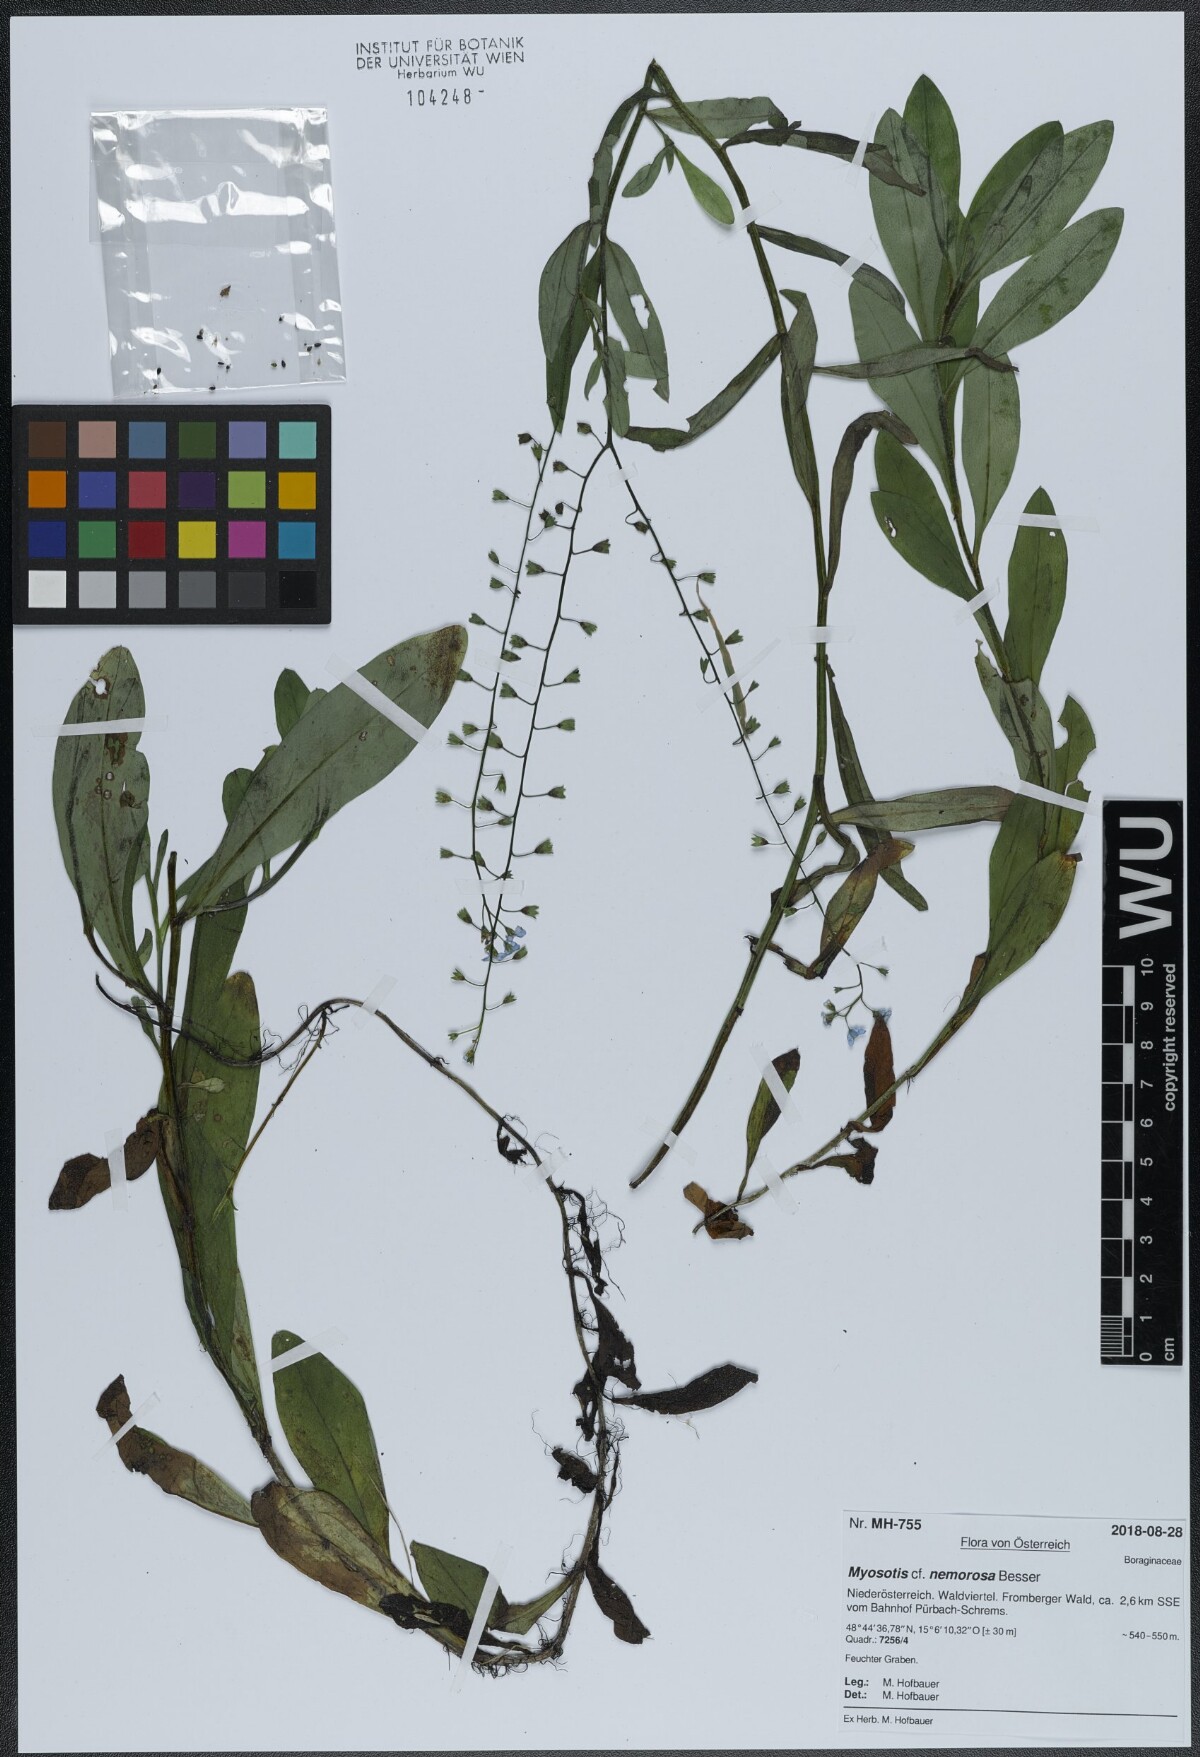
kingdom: Plantae
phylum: Tracheophyta
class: Magnoliopsida
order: Boraginales
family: Boraginaceae
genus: Myosotis
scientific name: Myosotis nemorosa
